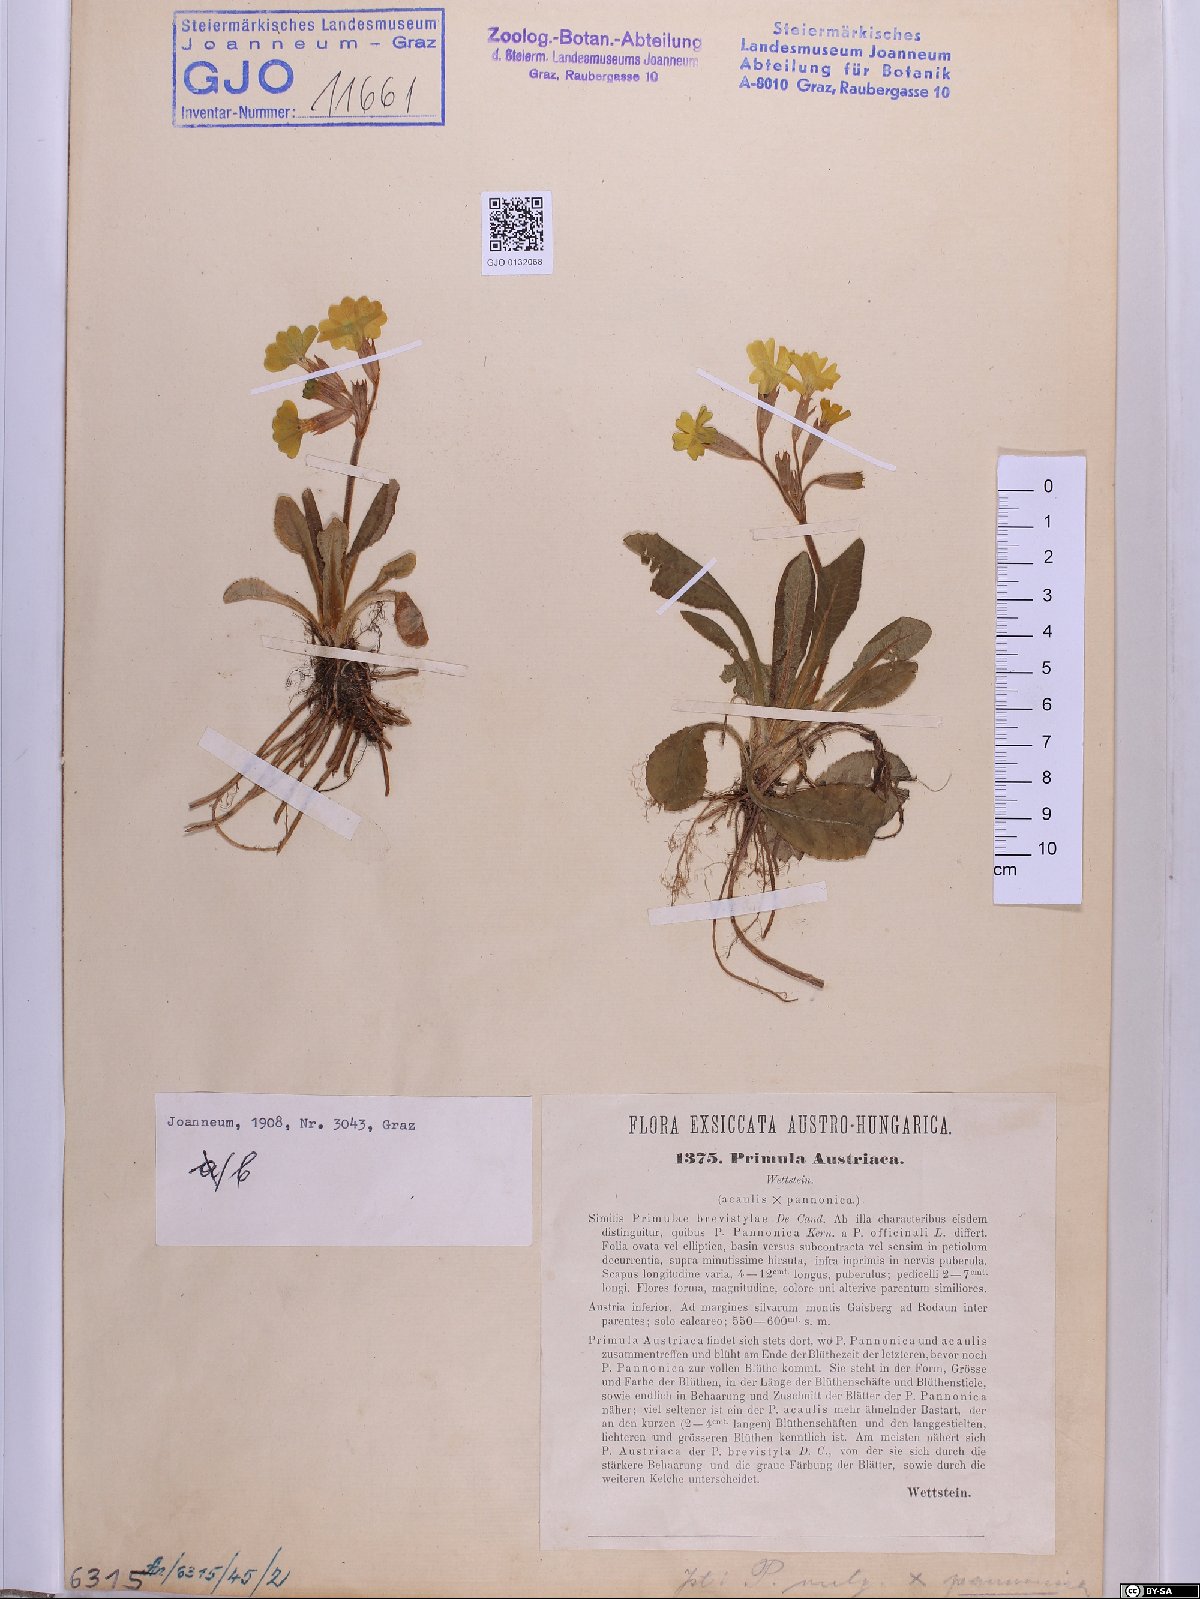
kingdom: Plantae
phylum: Tracheophyta
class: Magnoliopsida
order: Ericales
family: Primulaceae
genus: Primula
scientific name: Primula austriaca
